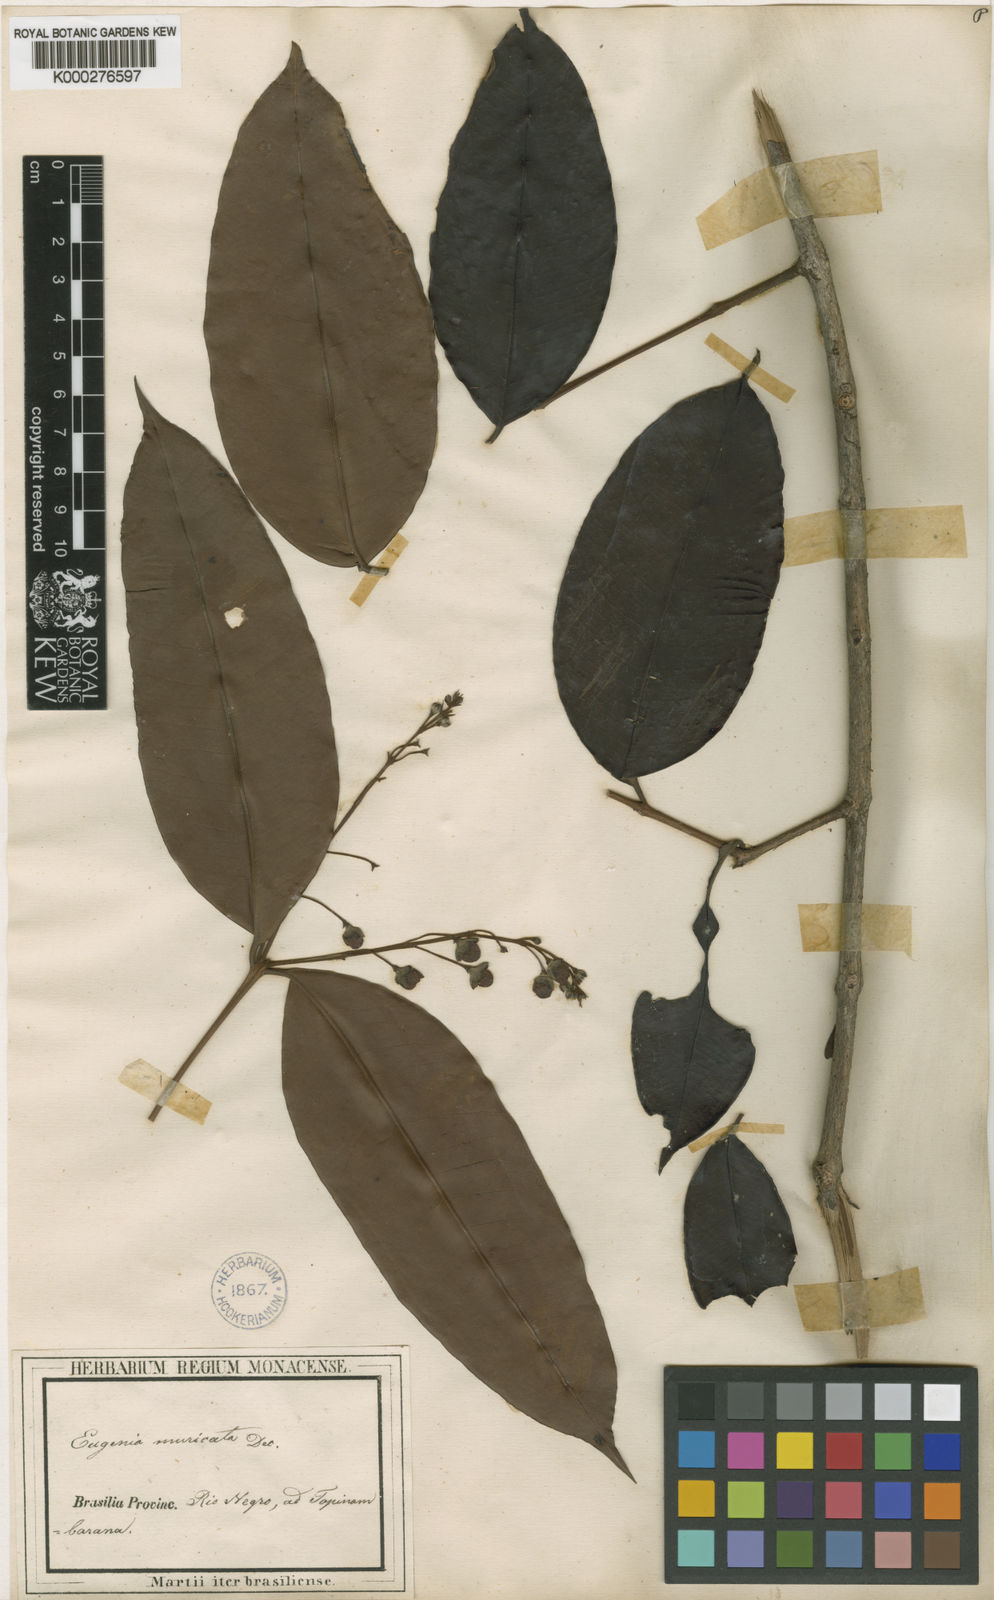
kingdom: Plantae
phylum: Tracheophyta
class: Magnoliopsida
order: Myrtales
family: Myrtaceae
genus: Eugenia
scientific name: Eugenia muricata
